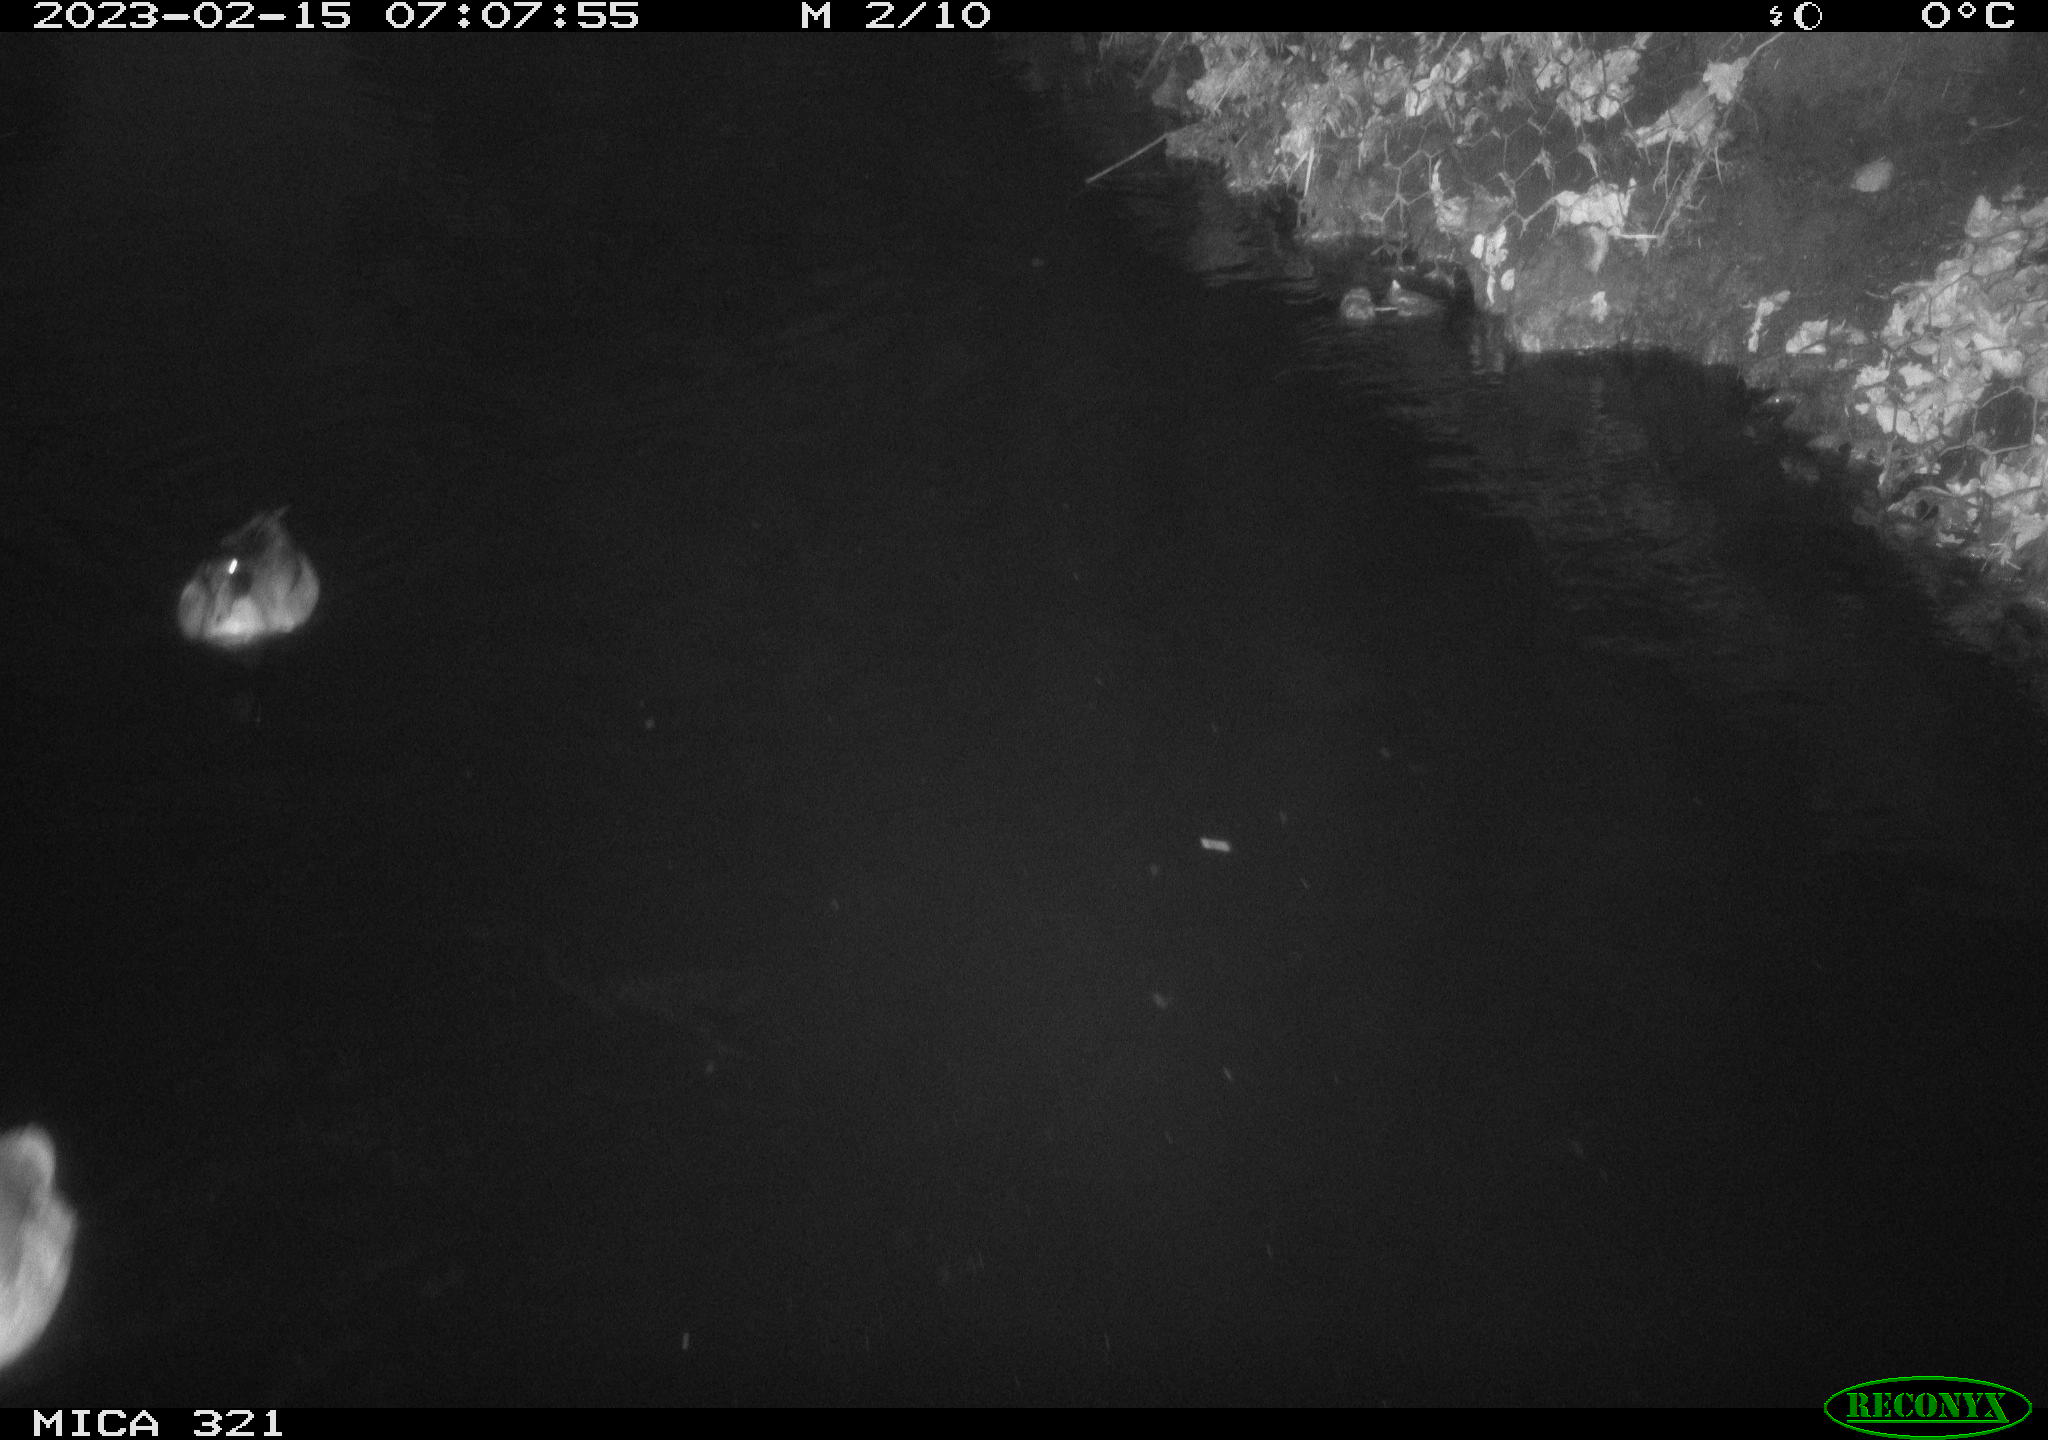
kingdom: Animalia
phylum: Chordata
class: Aves
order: Anseriformes
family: Anatidae
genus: Anas
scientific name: Anas
